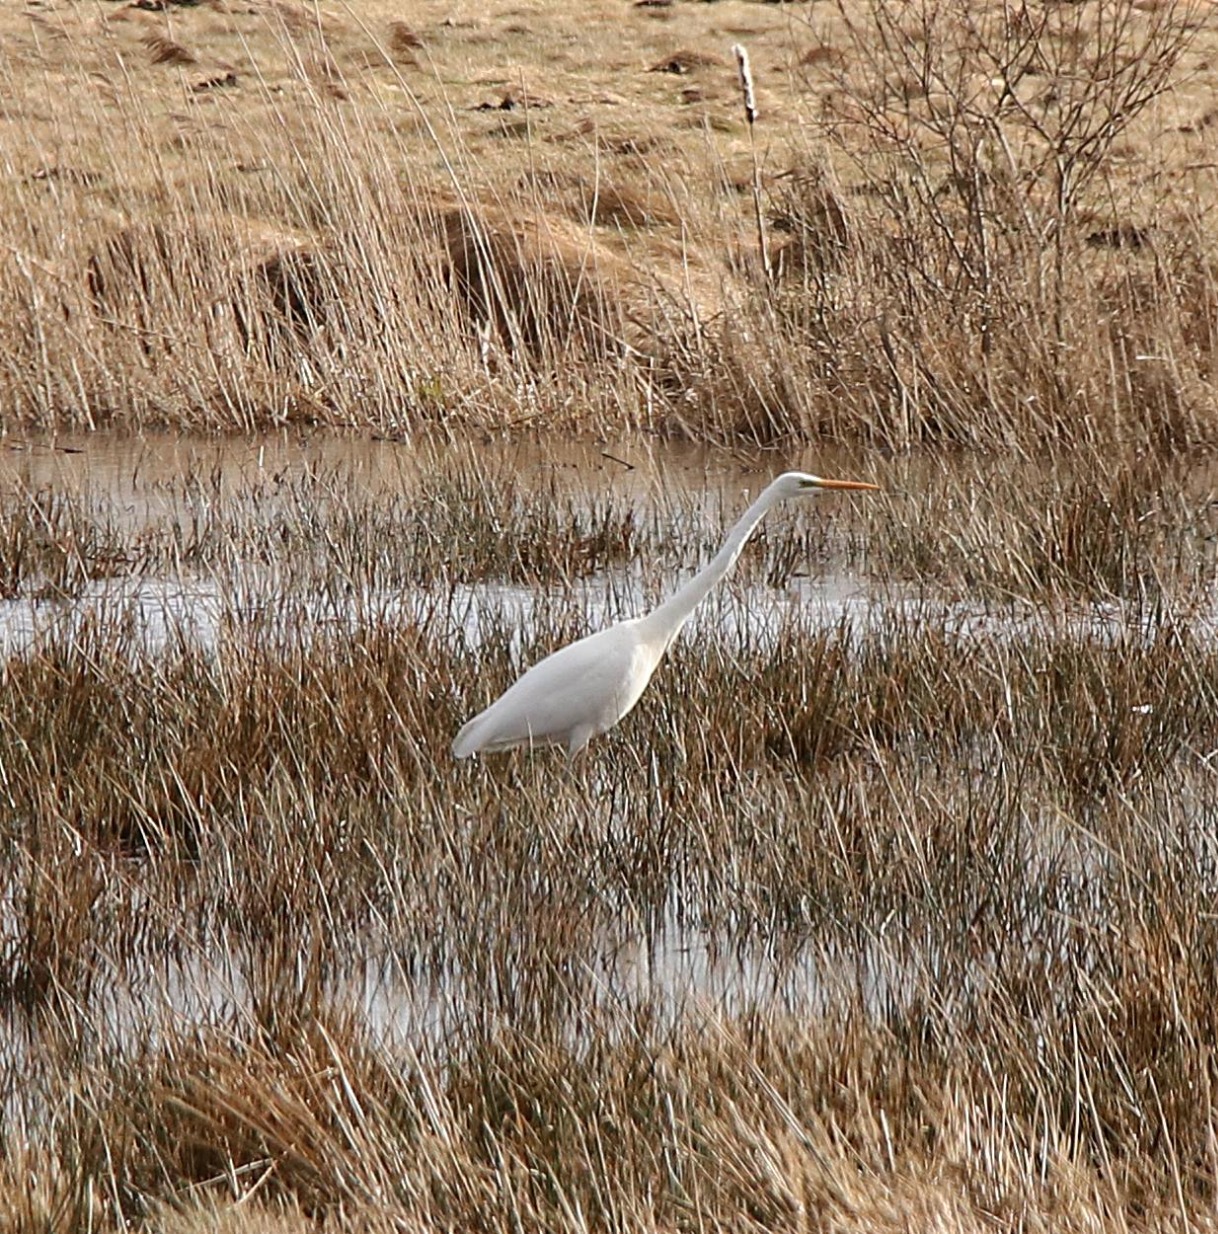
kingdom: Animalia
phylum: Chordata
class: Aves
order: Pelecaniformes
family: Ardeidae
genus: Ardea
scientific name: Ardea alba
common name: Sølvhejre
